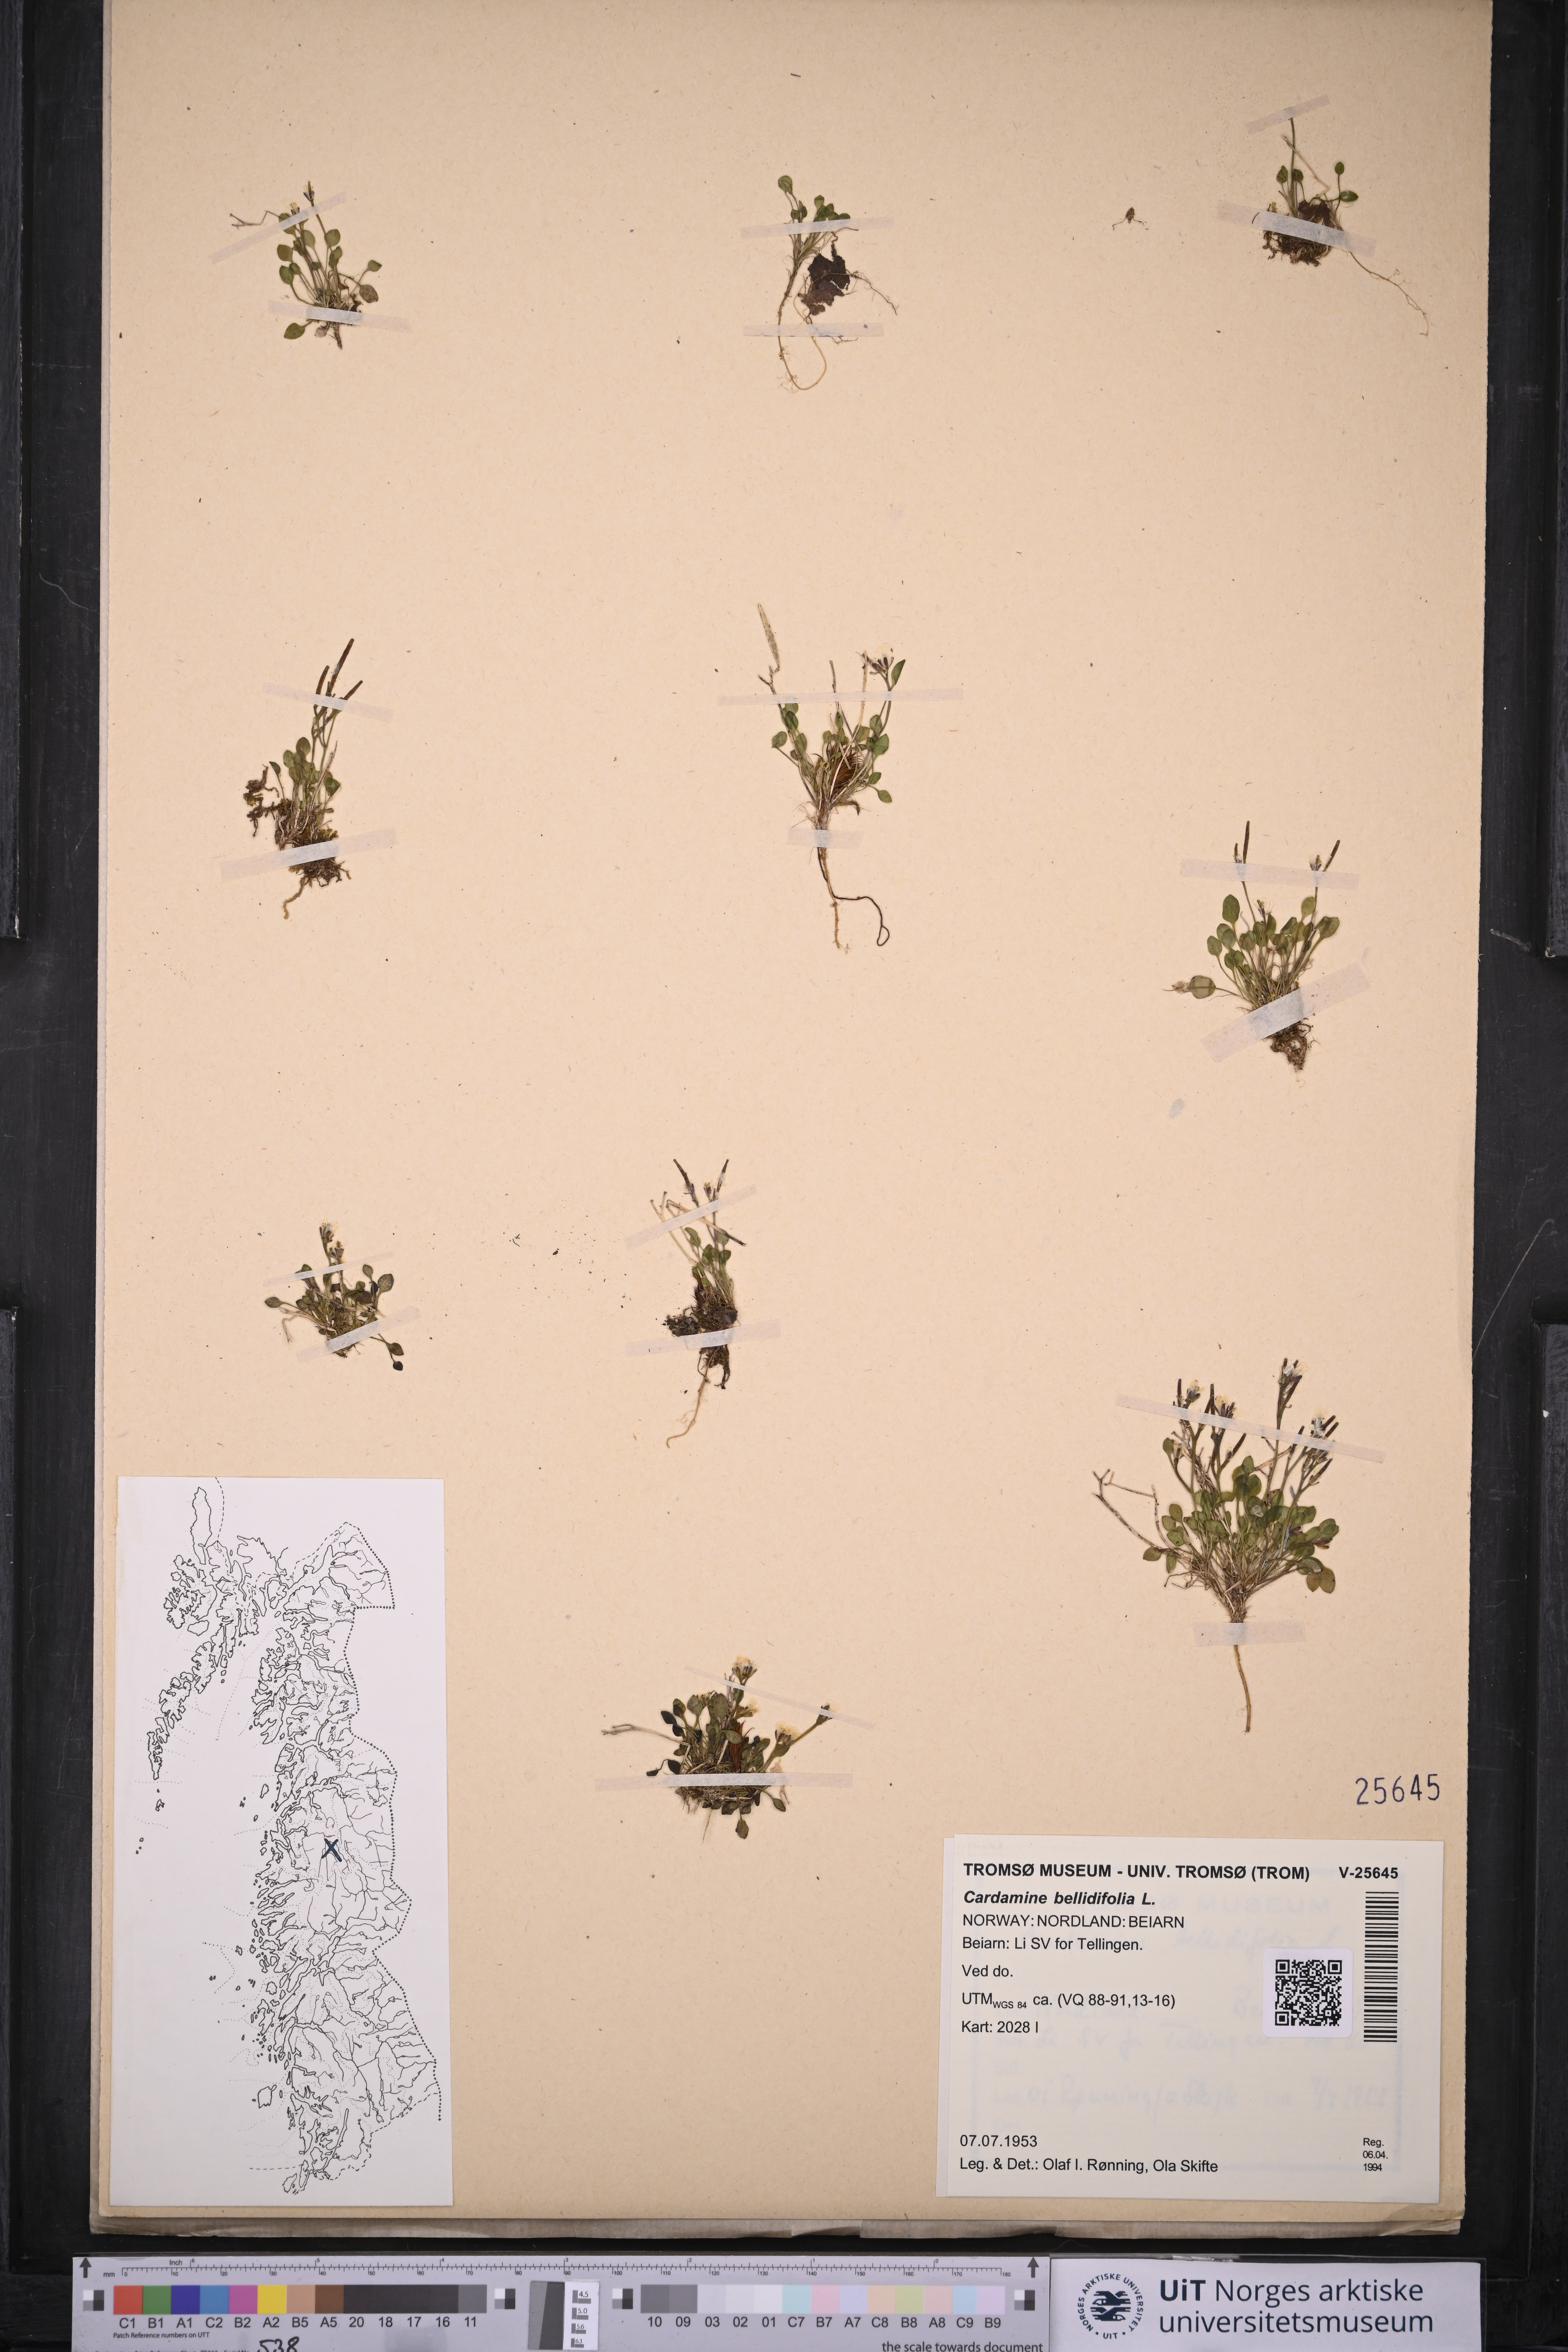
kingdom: Plantae
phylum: Tracheophyta
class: Magnoliopsida
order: Brassicales
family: Brassicaceae
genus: Cardamine
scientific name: Cardamine bellidifolia
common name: Alpine bittercress
